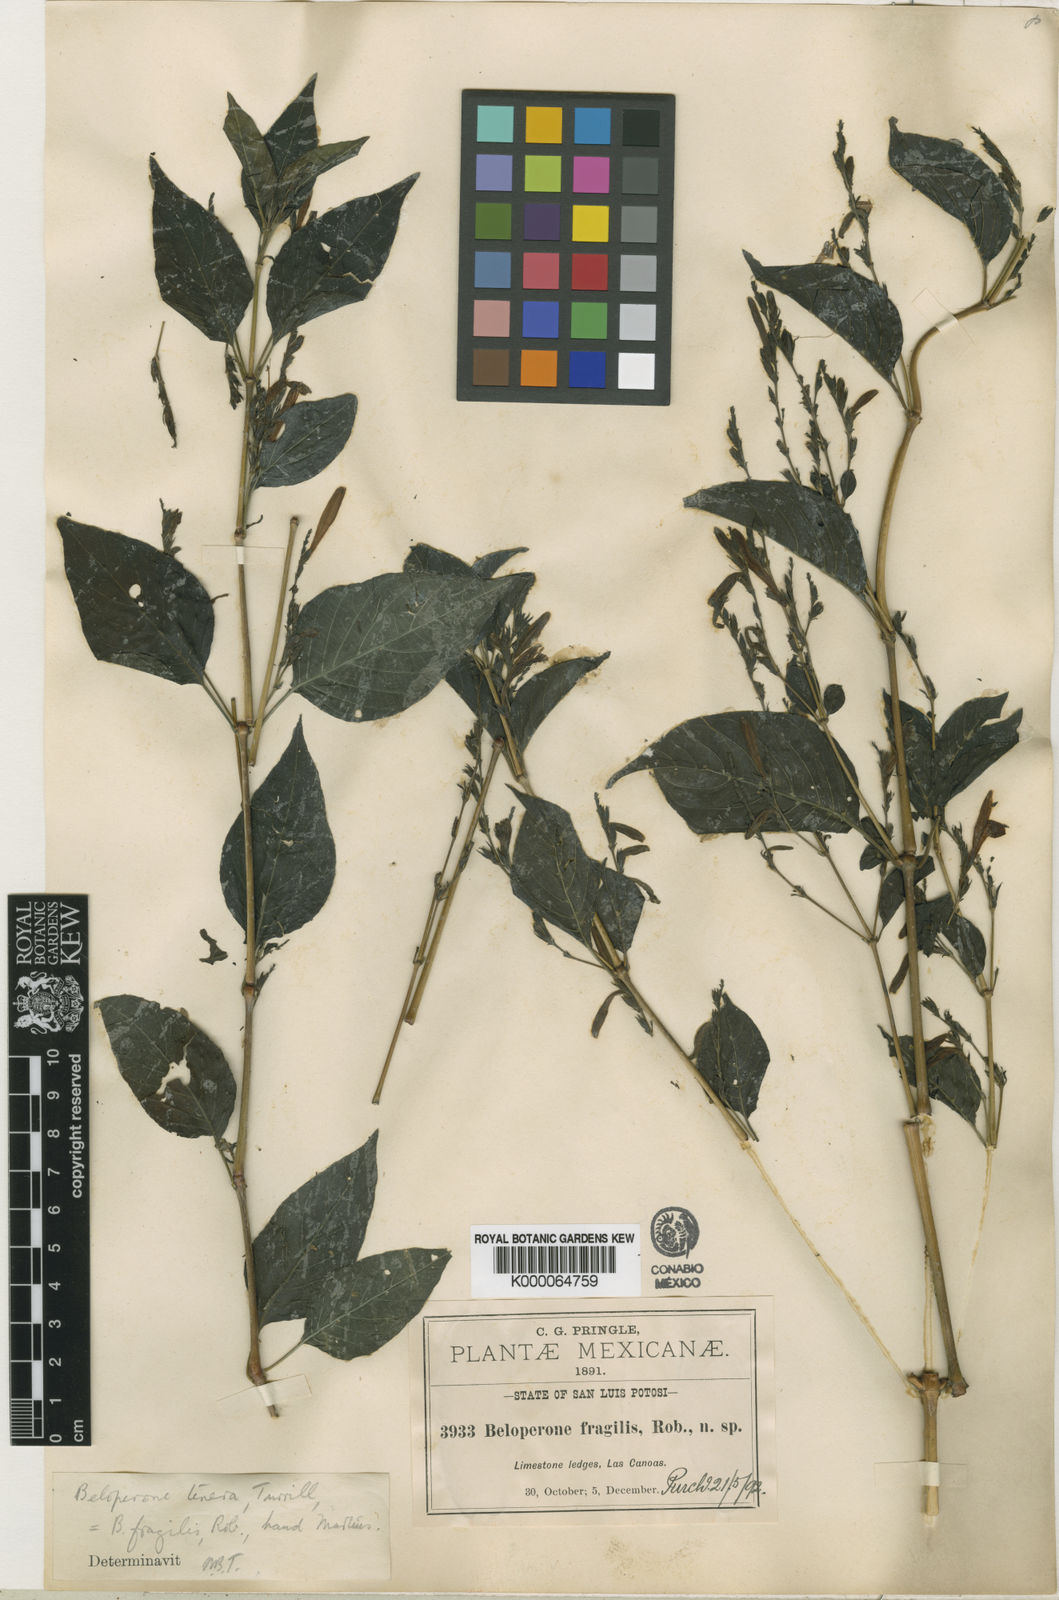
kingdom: Plantae
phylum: Tracheophyta
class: Magnoliopsida
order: Lamiales
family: Acanthaceae
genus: Justicia
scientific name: Justicia tenera
